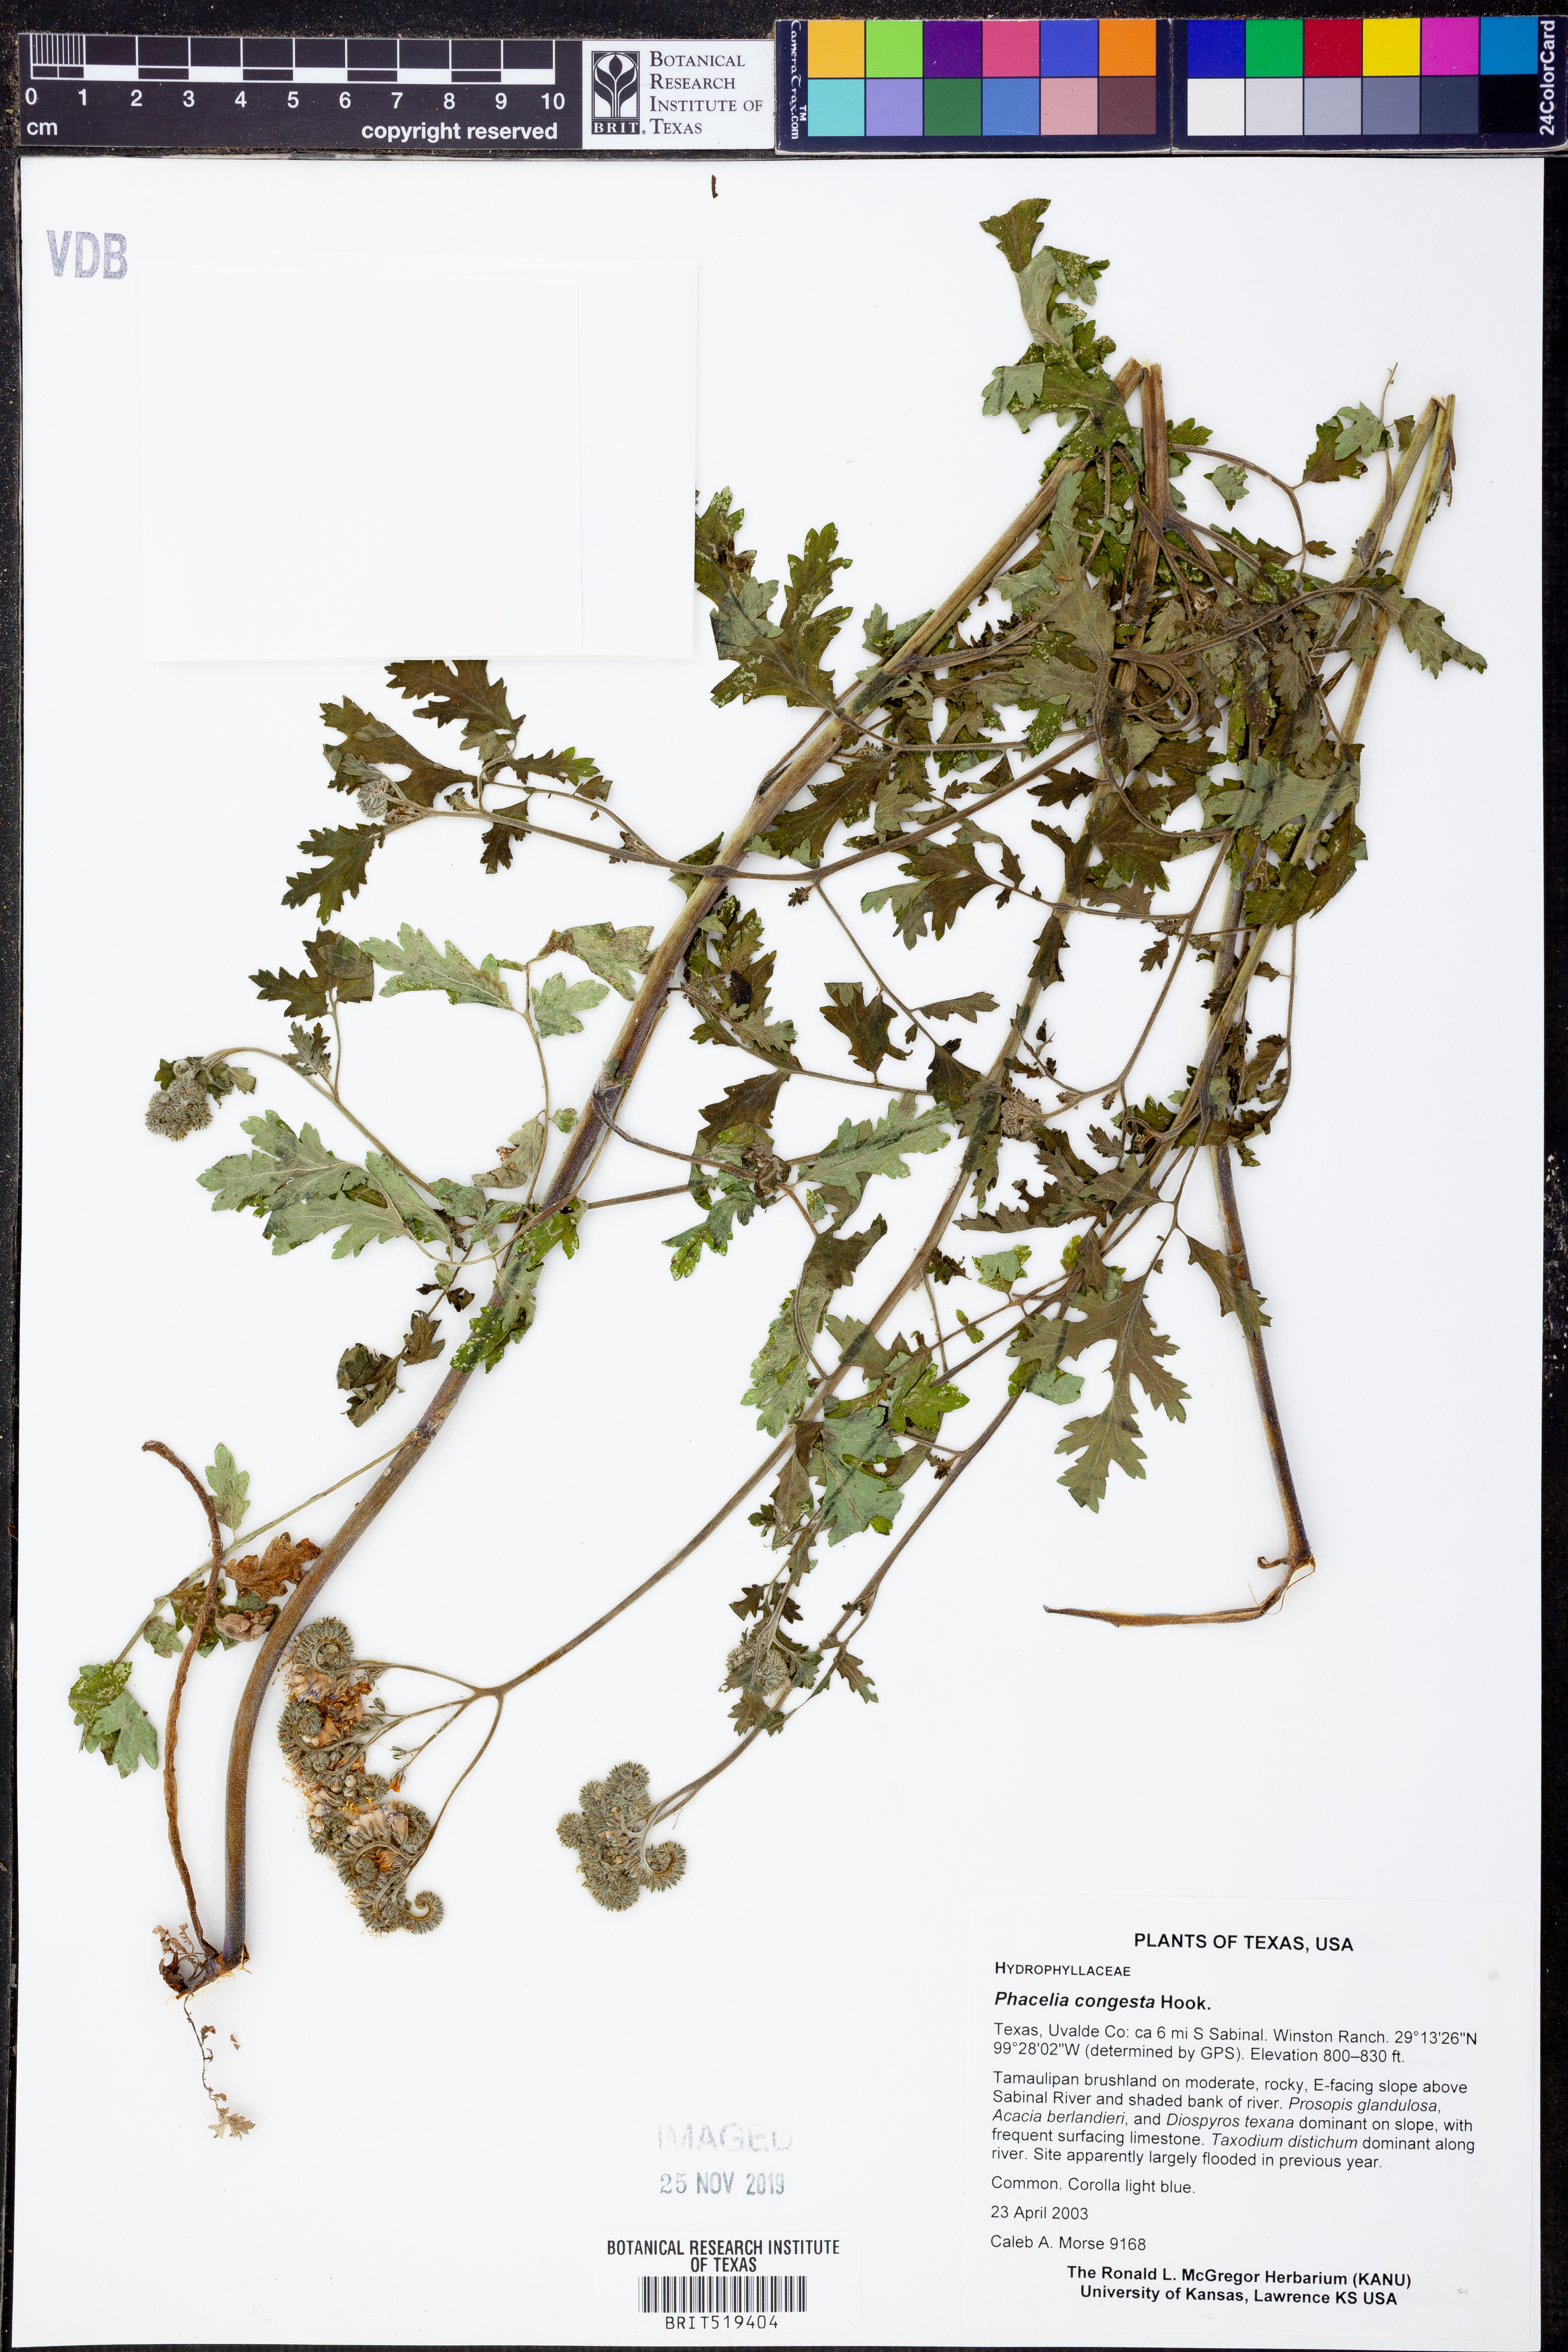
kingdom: Plantae
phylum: Tracheophyta
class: Magnoliopsida
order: Boraginales
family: Hydrophyllaceae
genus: Phacelia
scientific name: Phacelia congesta
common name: Blue curls
